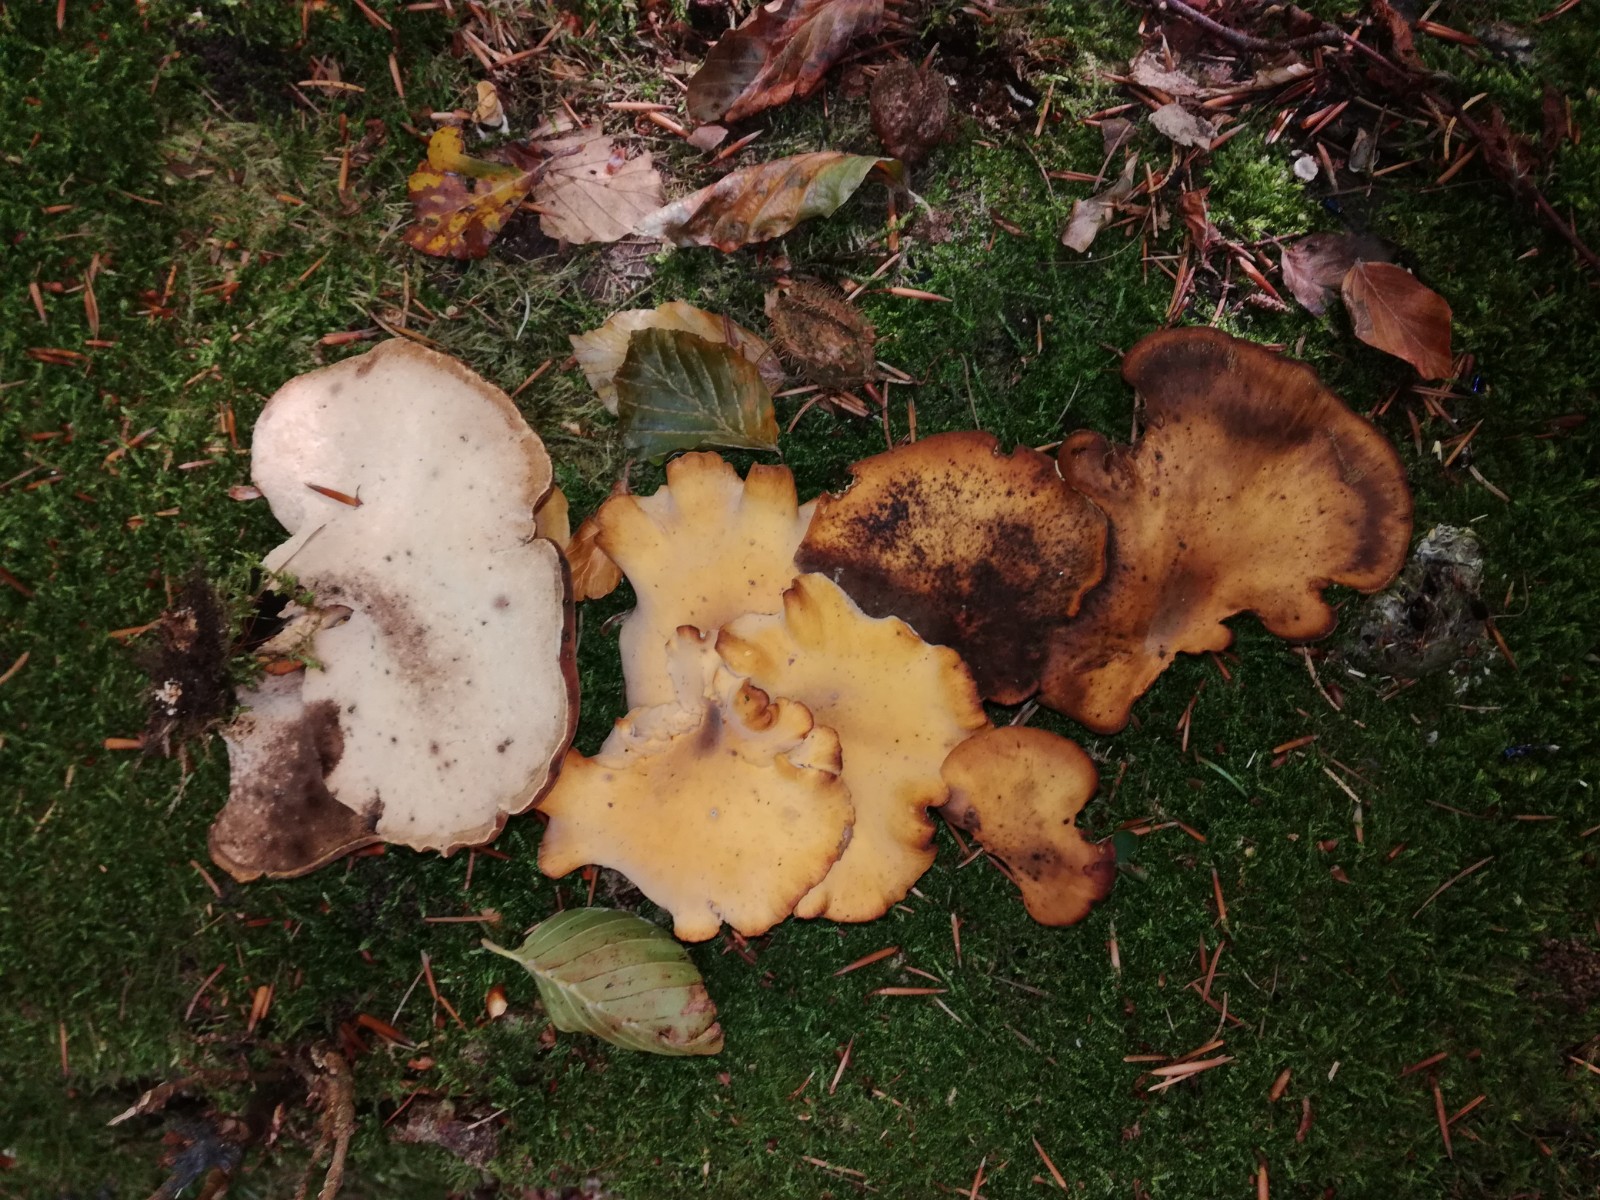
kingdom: Fungi
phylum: Basidiomycota
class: Agaricomycetes
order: Polyporales
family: Polyporaceae
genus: Cerioporus
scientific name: Cerioporus varius
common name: foranderlig stilkporesvamp
